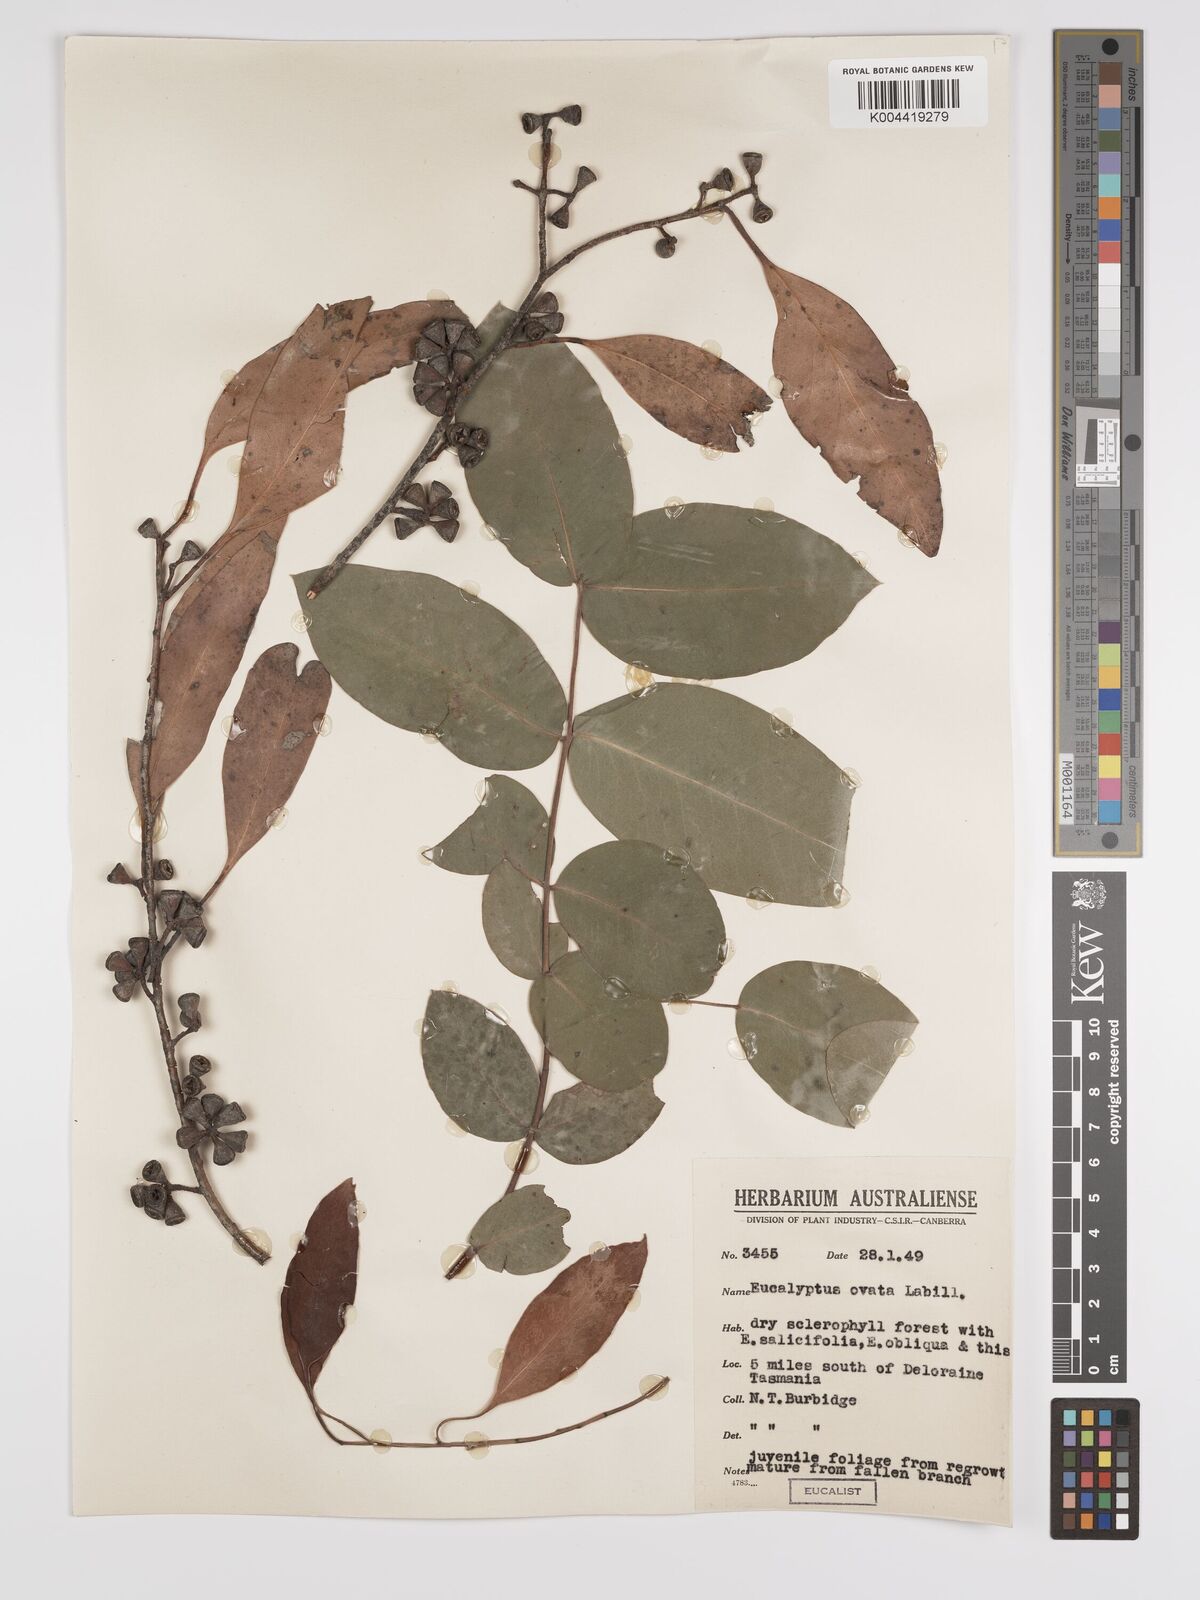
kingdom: Plantae
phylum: Tracheophyta
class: Magnoliopsida
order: Myrtales
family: Myrtaceae
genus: Eucalyptus
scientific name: Eucalyptus ovata
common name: Black-gum
